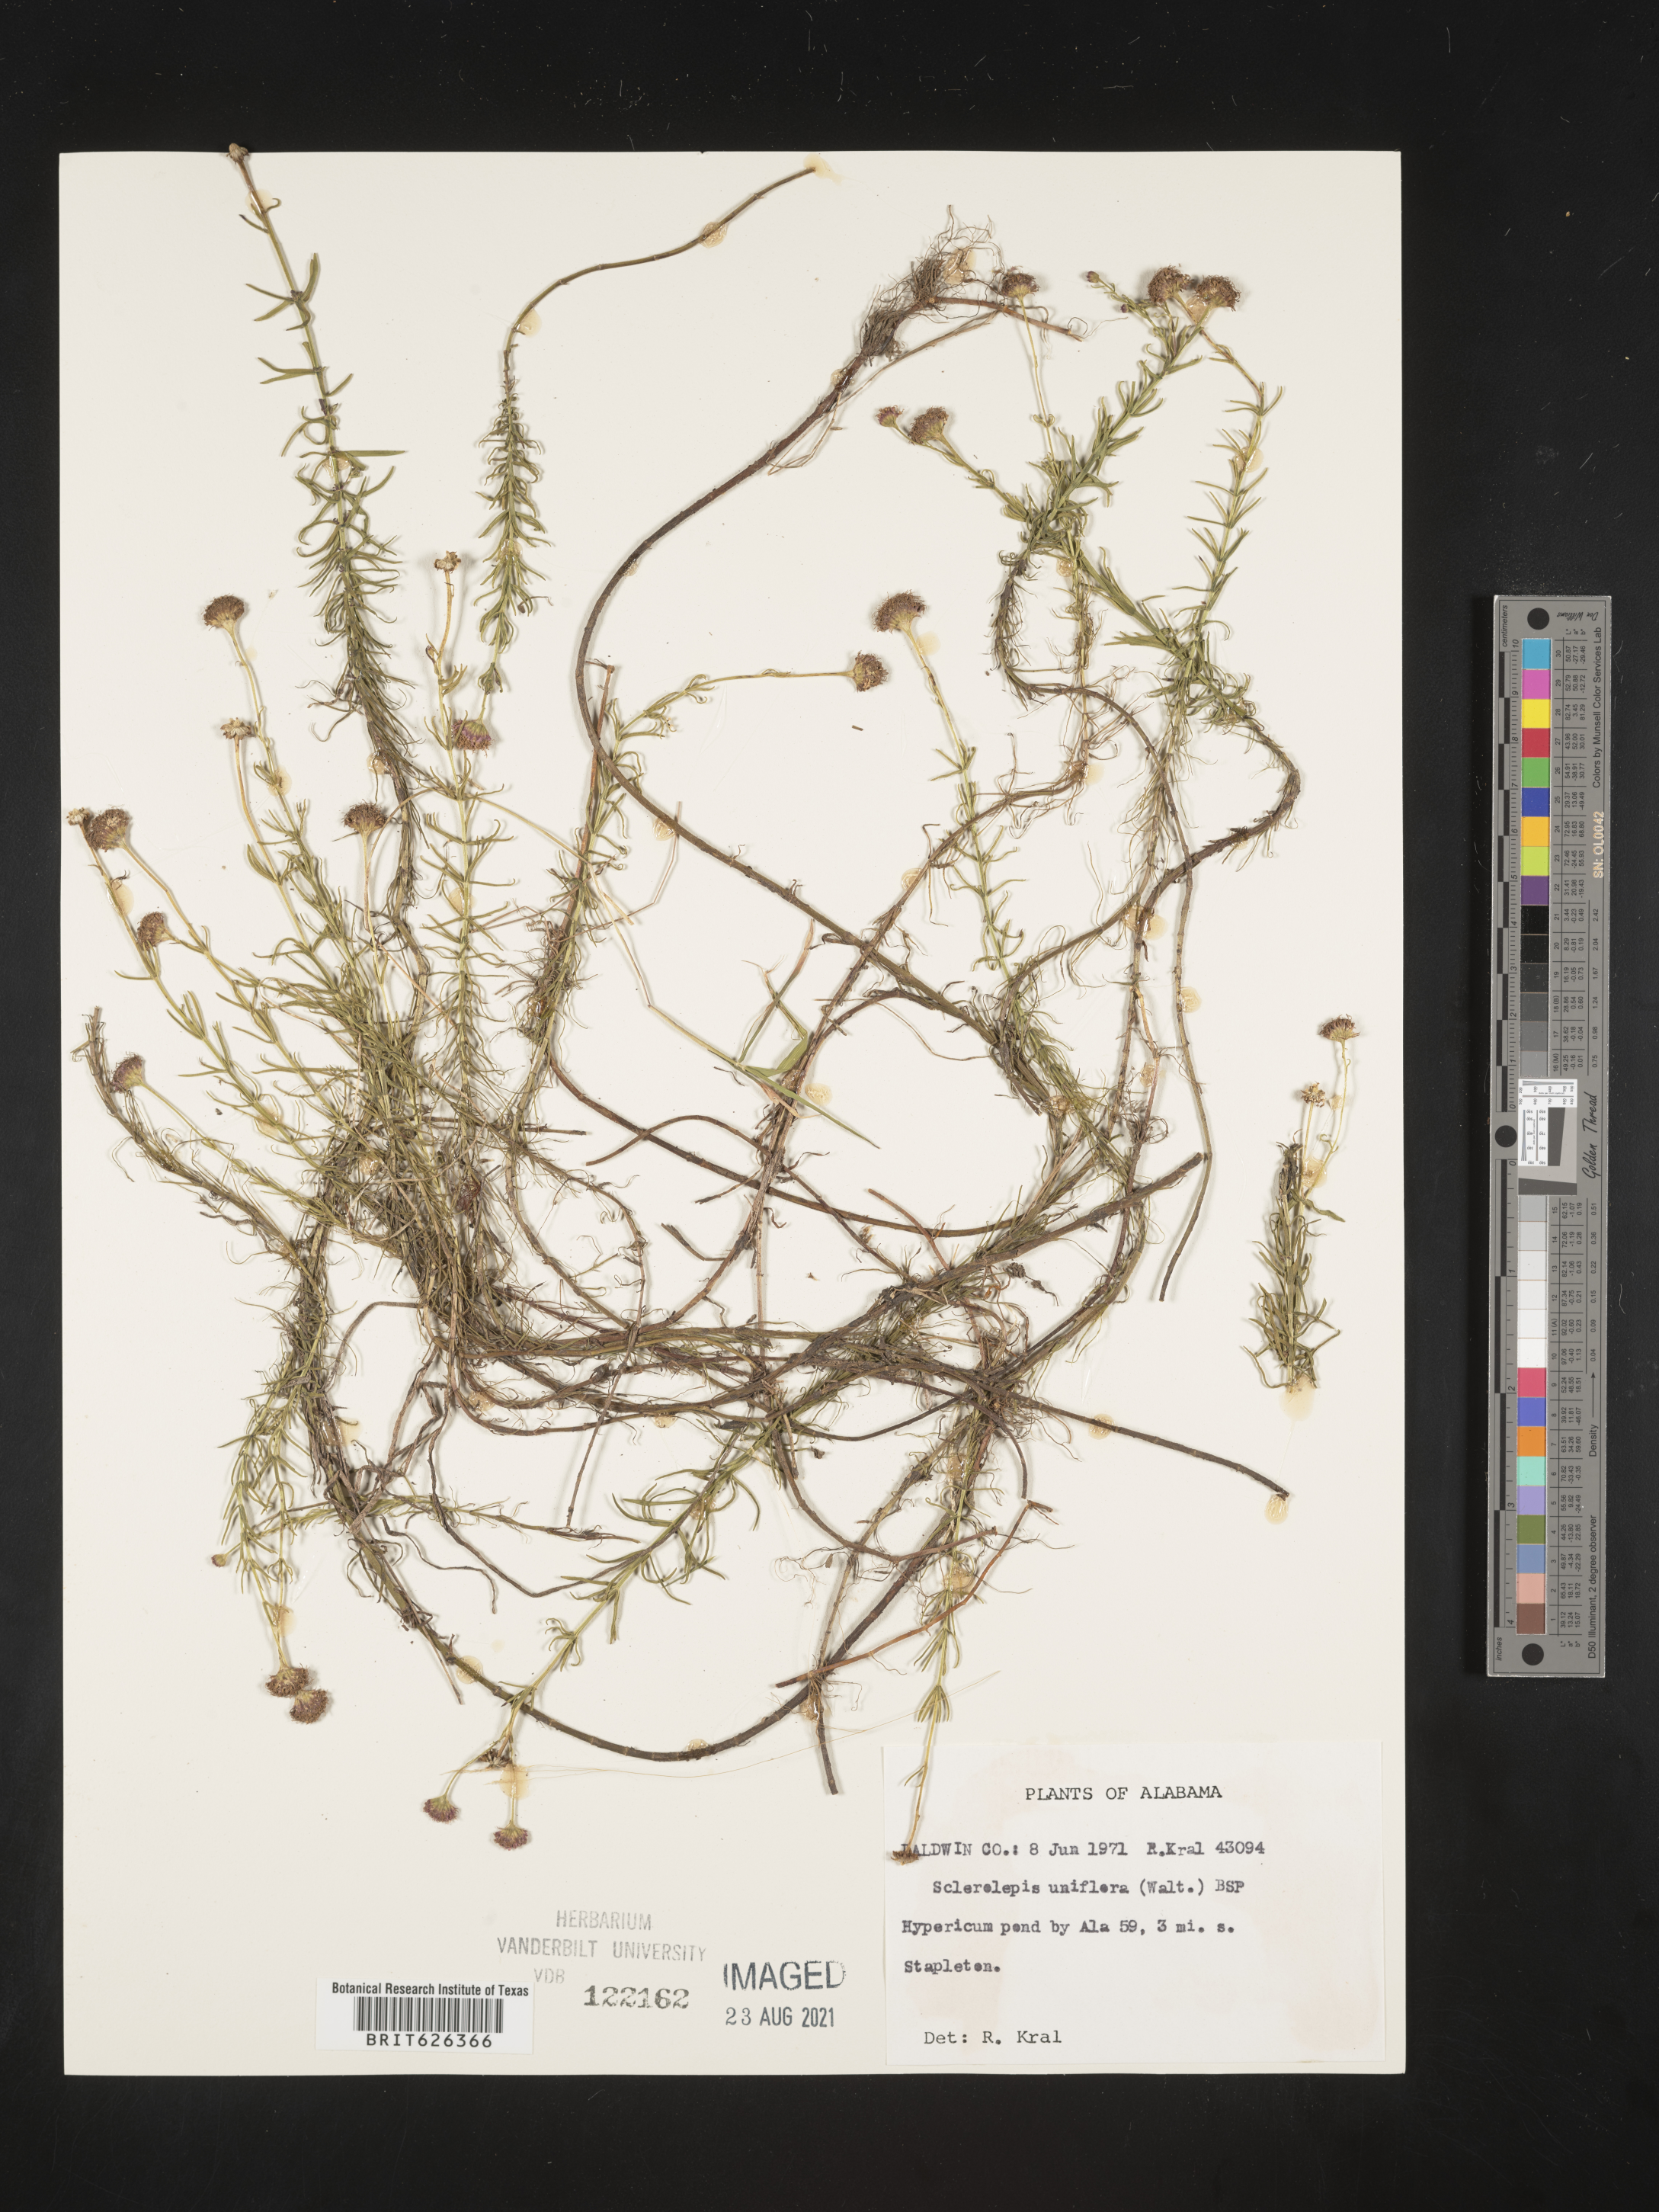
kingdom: Plantae
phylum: Tracheophyta
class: Magnoliopsida
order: Asterales
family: Asteraceae
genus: Sclerolepis
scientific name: Sclerolepis
